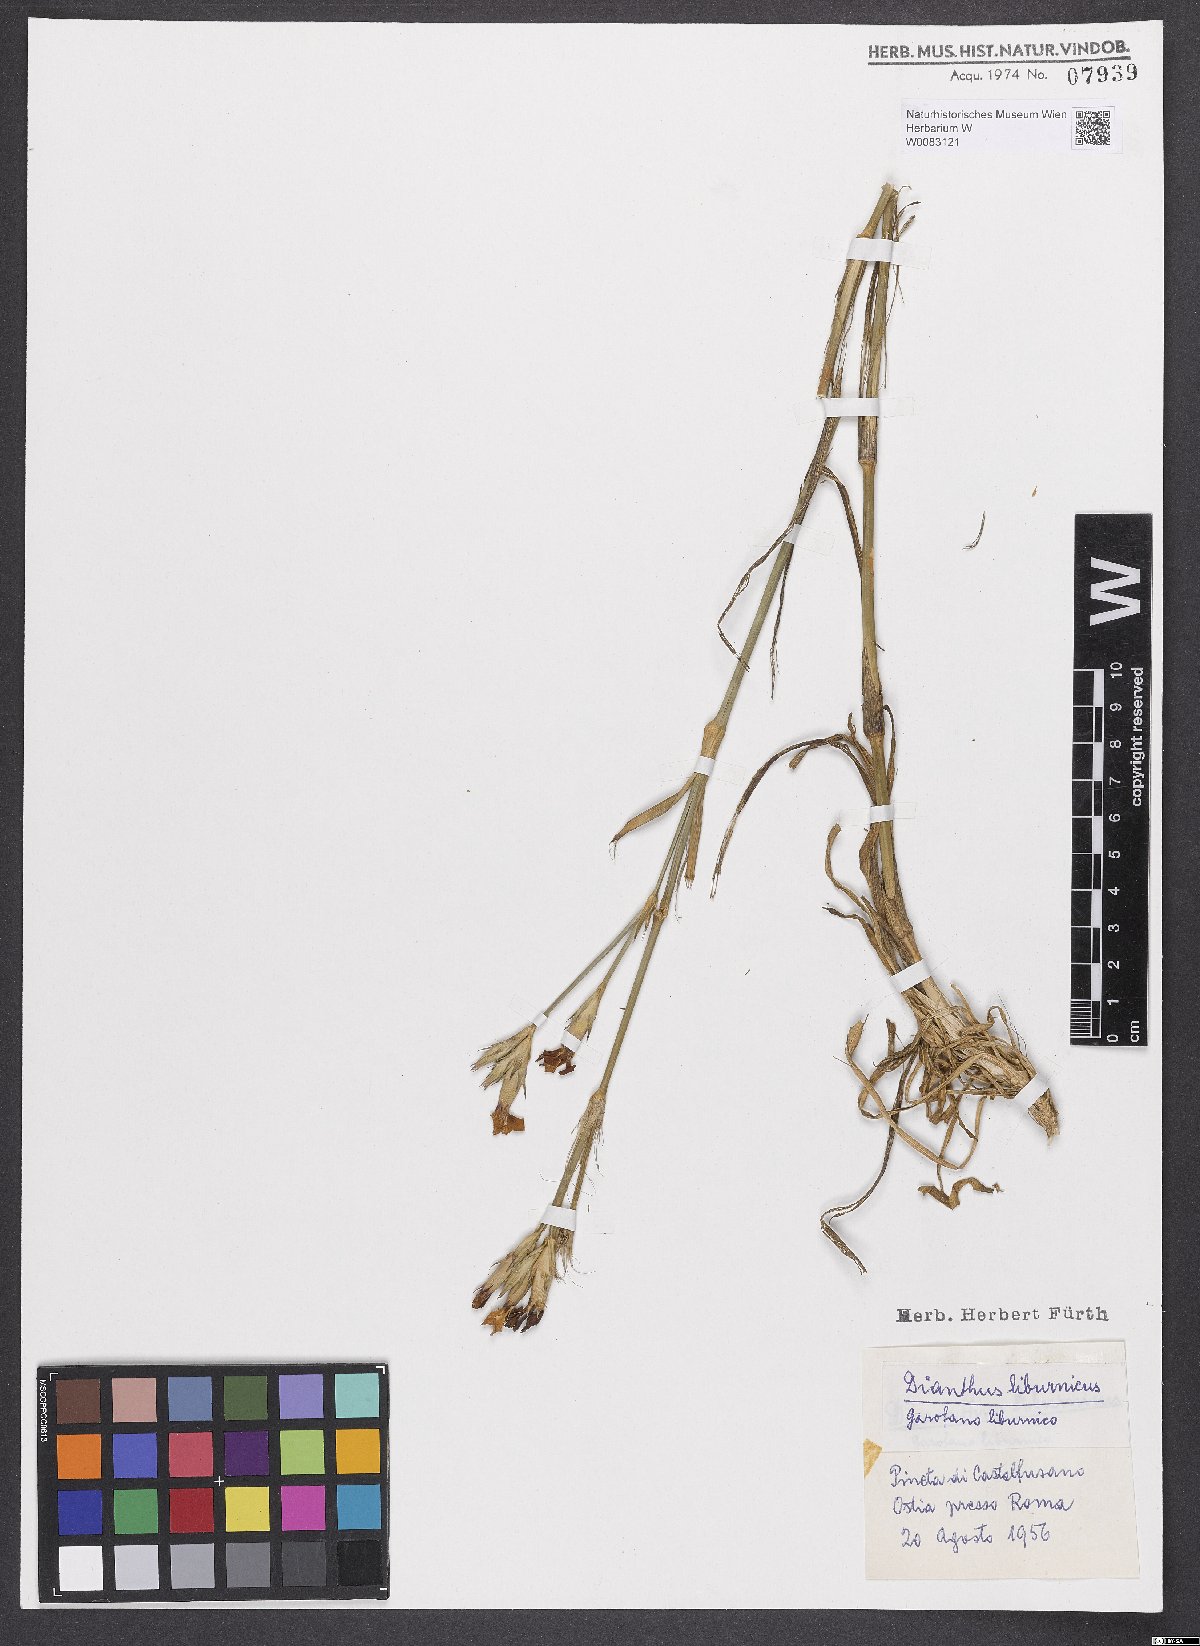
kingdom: Plantae
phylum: Tracheophyta
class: Magnoliopsida
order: Caryophyllales
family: Caryophyllaceae
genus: Dianthus
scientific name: Dianthus balbisii
